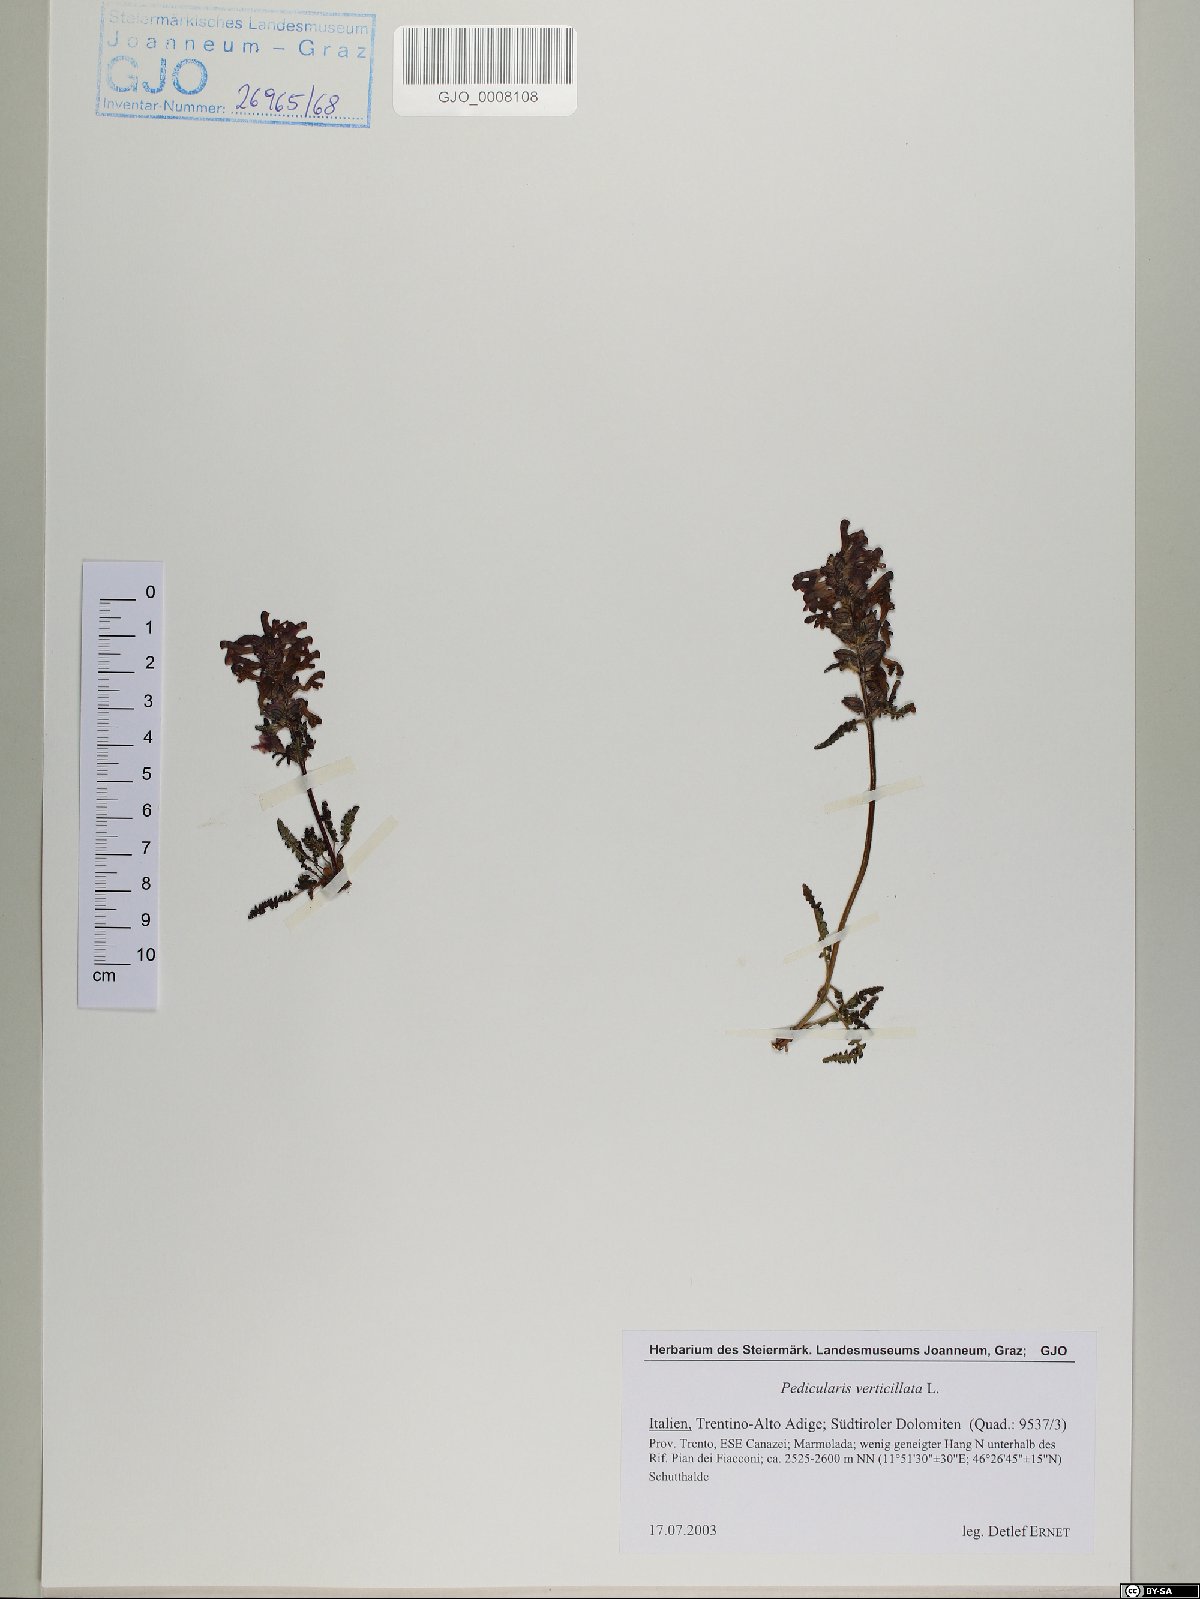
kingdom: Plantae
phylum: Tracheophyta
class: Magnoliopsida
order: Lamiales
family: Orobanchaceae
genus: Pedicularis
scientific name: Pedicularis verticillata
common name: Whorled lousewort
